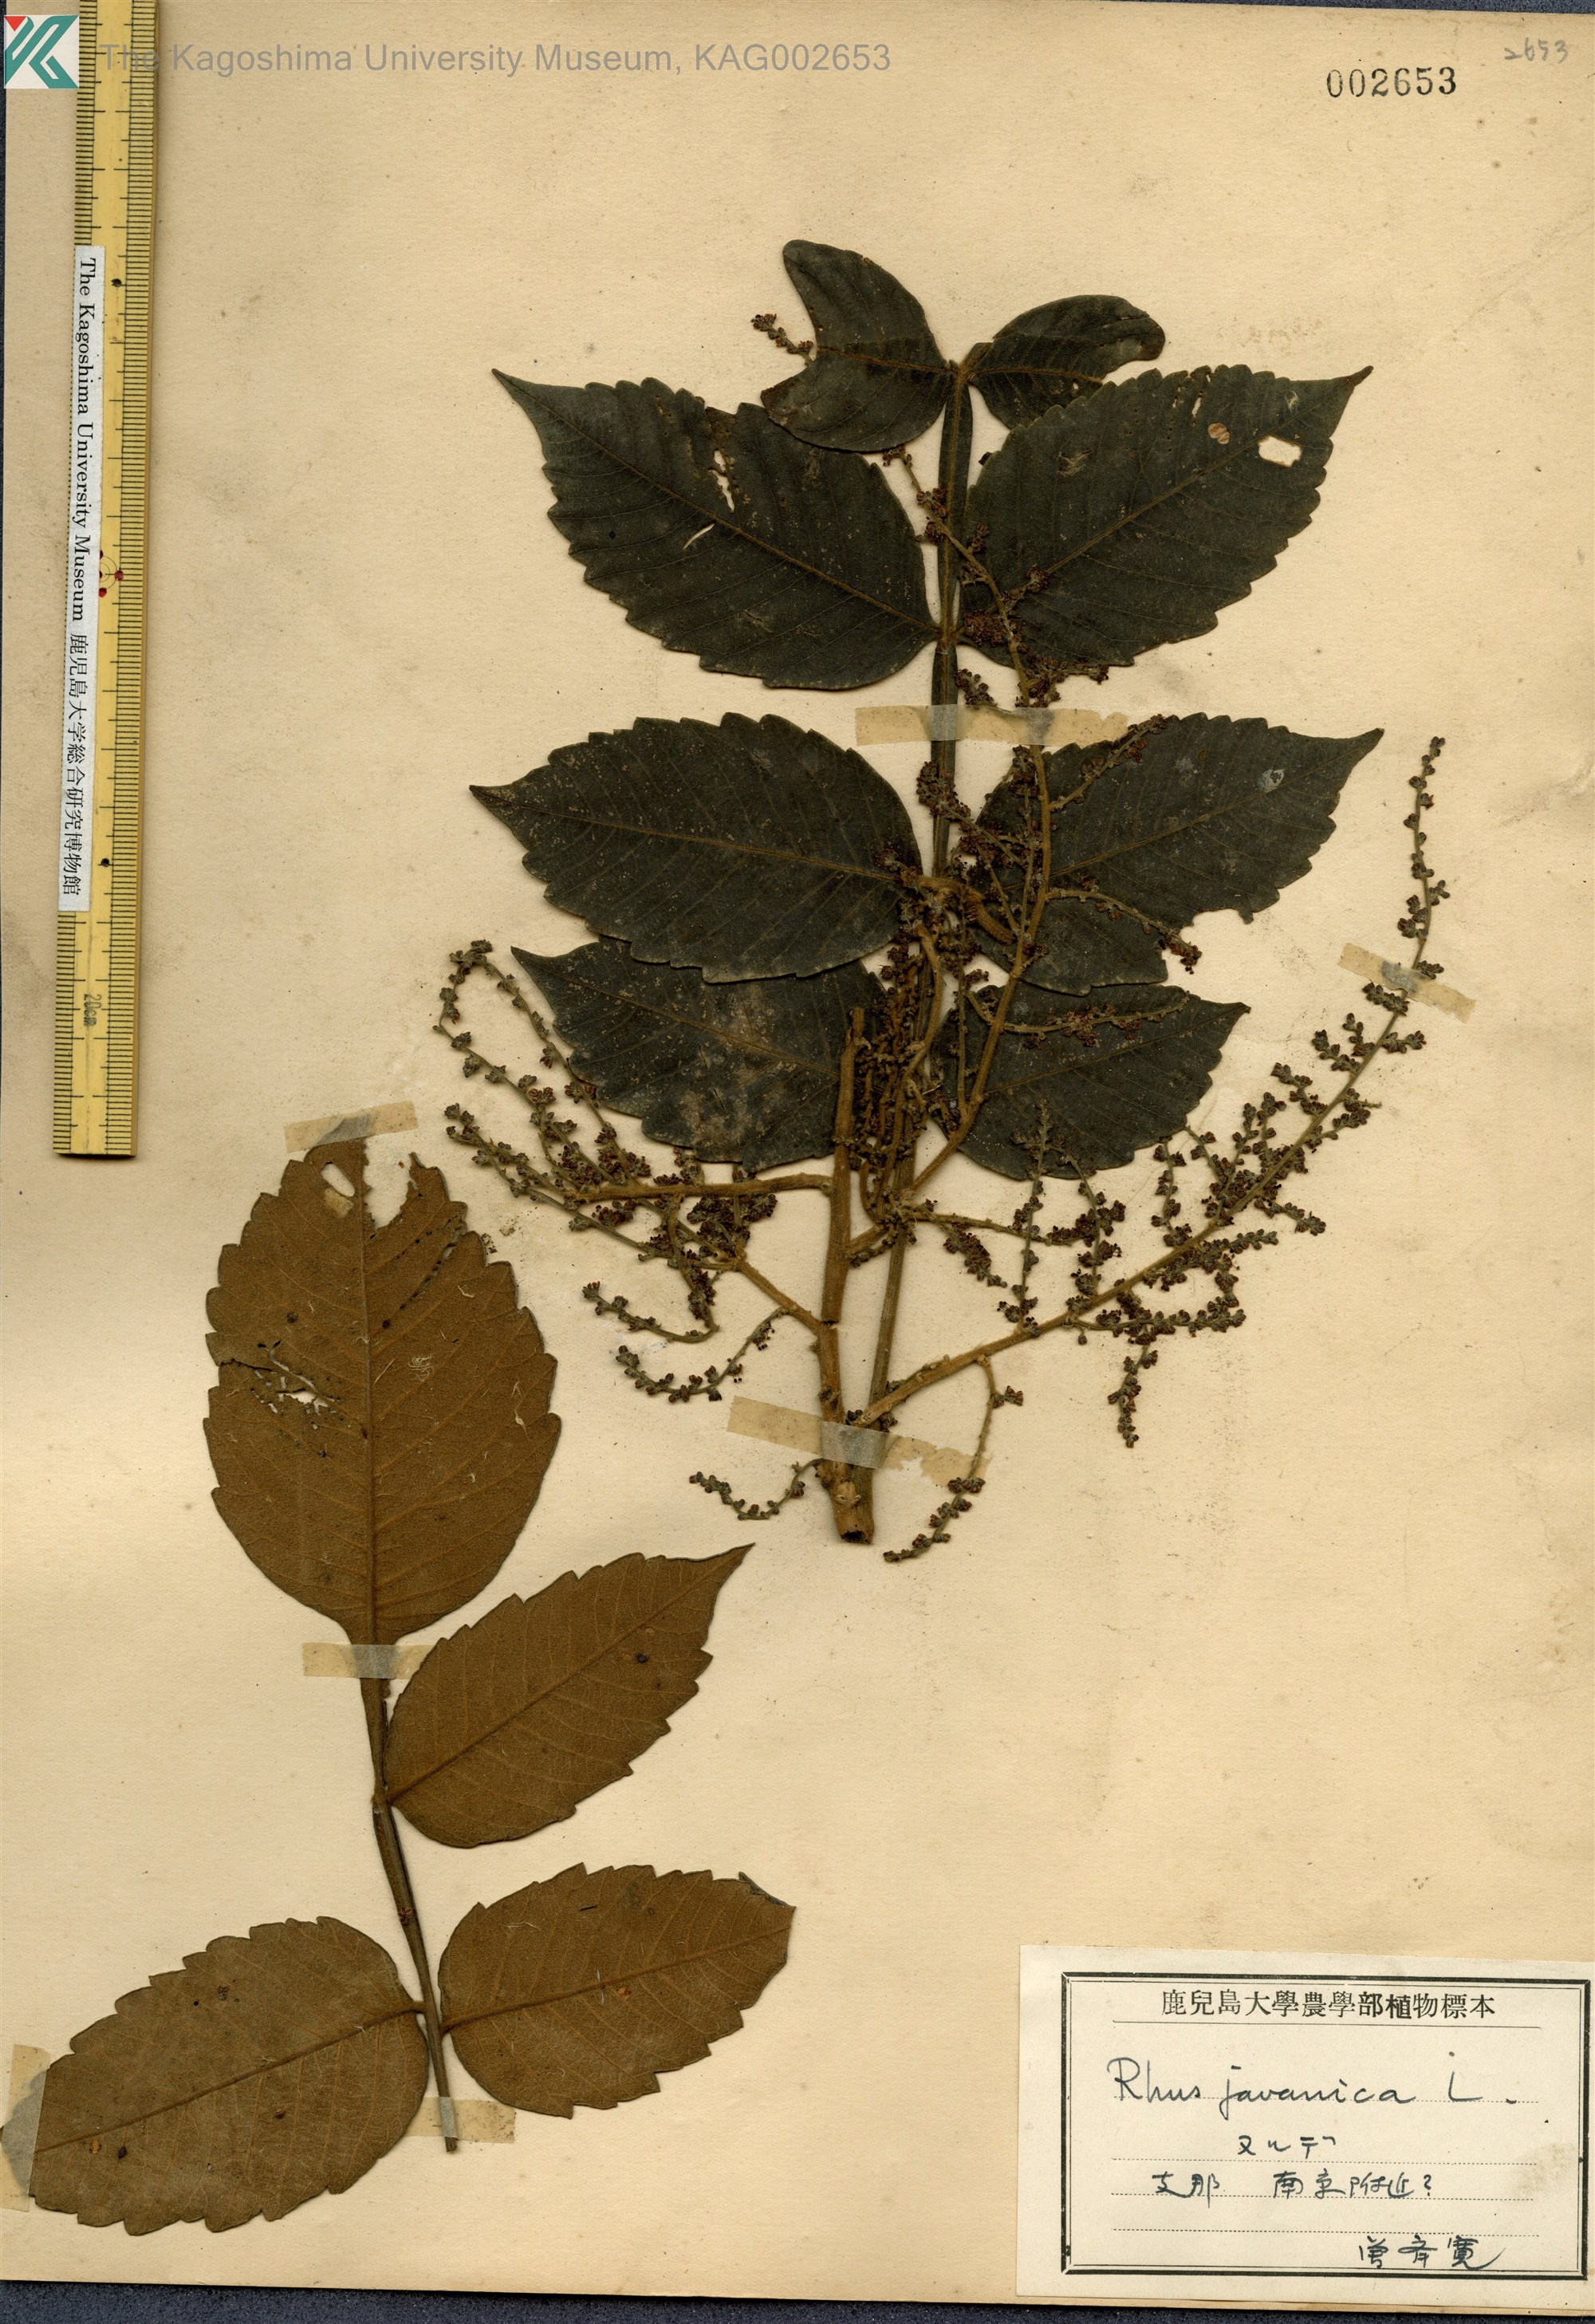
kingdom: Plantae
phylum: Tracheophyta
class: Magnoliopsida
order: Sapindales
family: Simaroubaceae
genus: Brucea
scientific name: Brucea javanica
